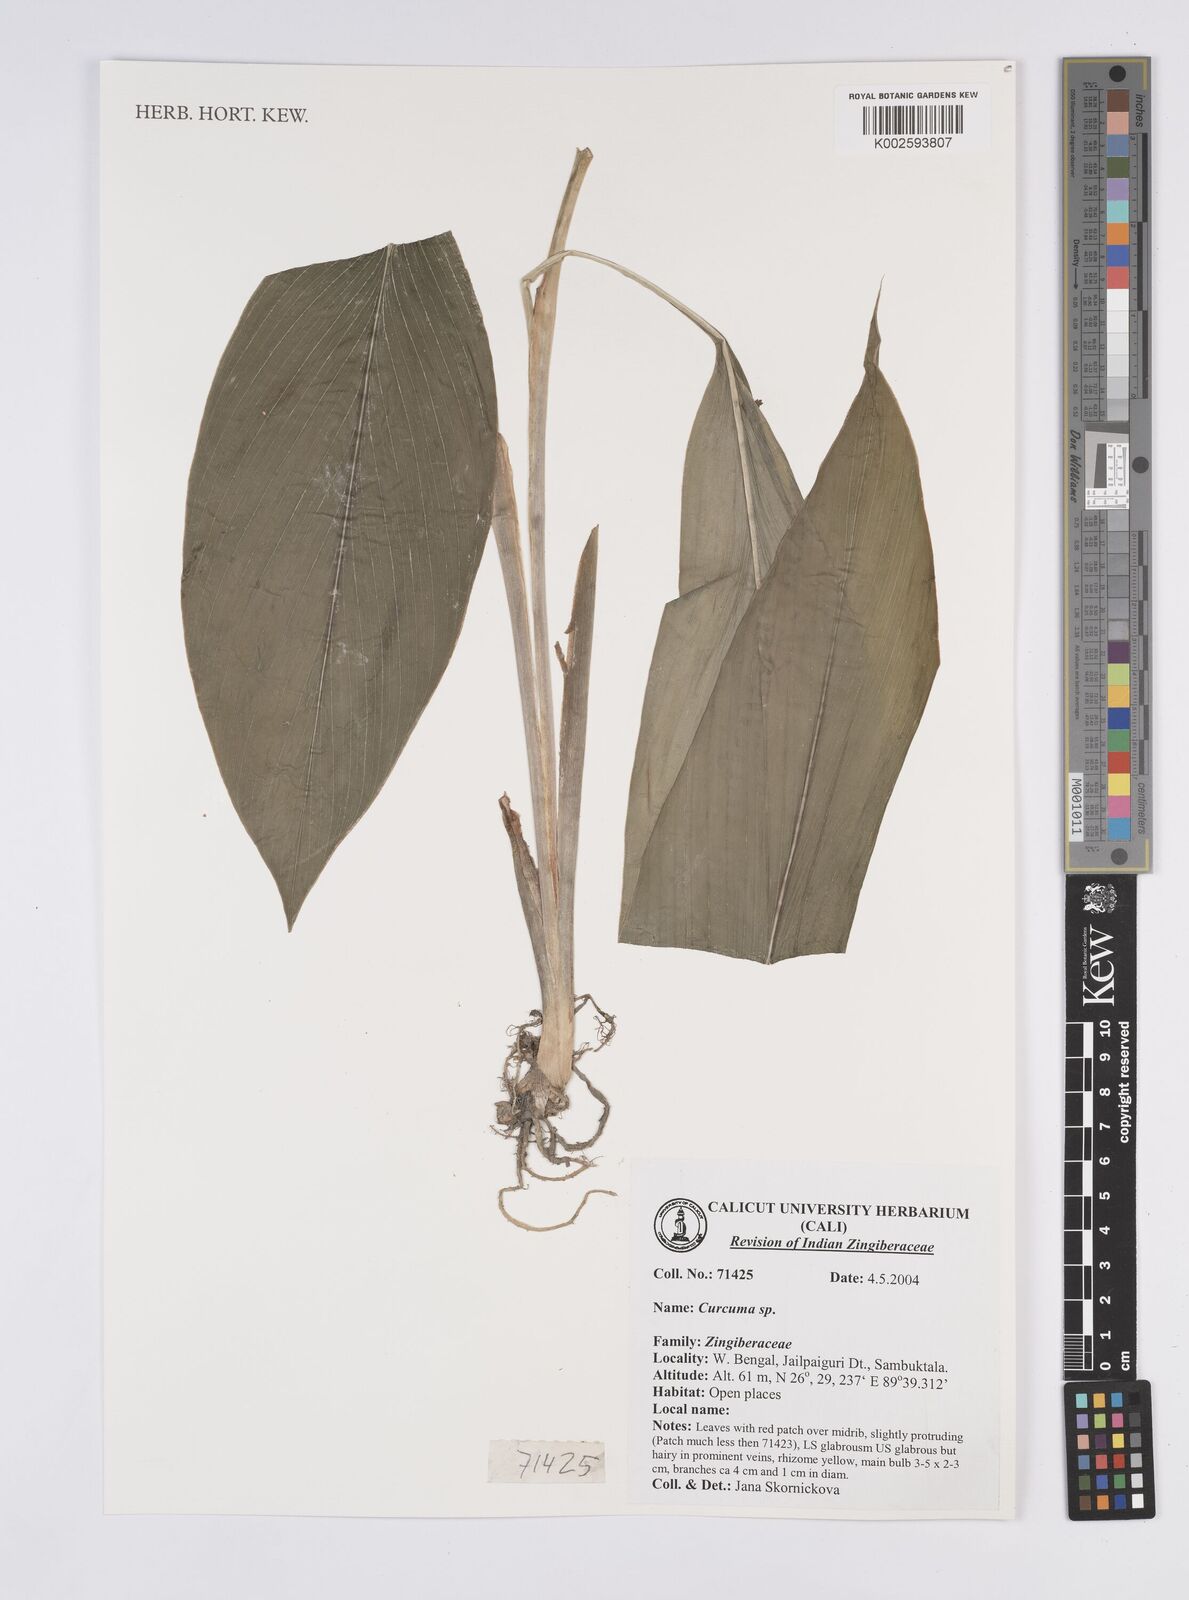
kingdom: Plantae
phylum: Tracheophyta
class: Liliopsida
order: Zingiberales
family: Zingiberaceae
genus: Curcuma
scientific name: Curcuma
